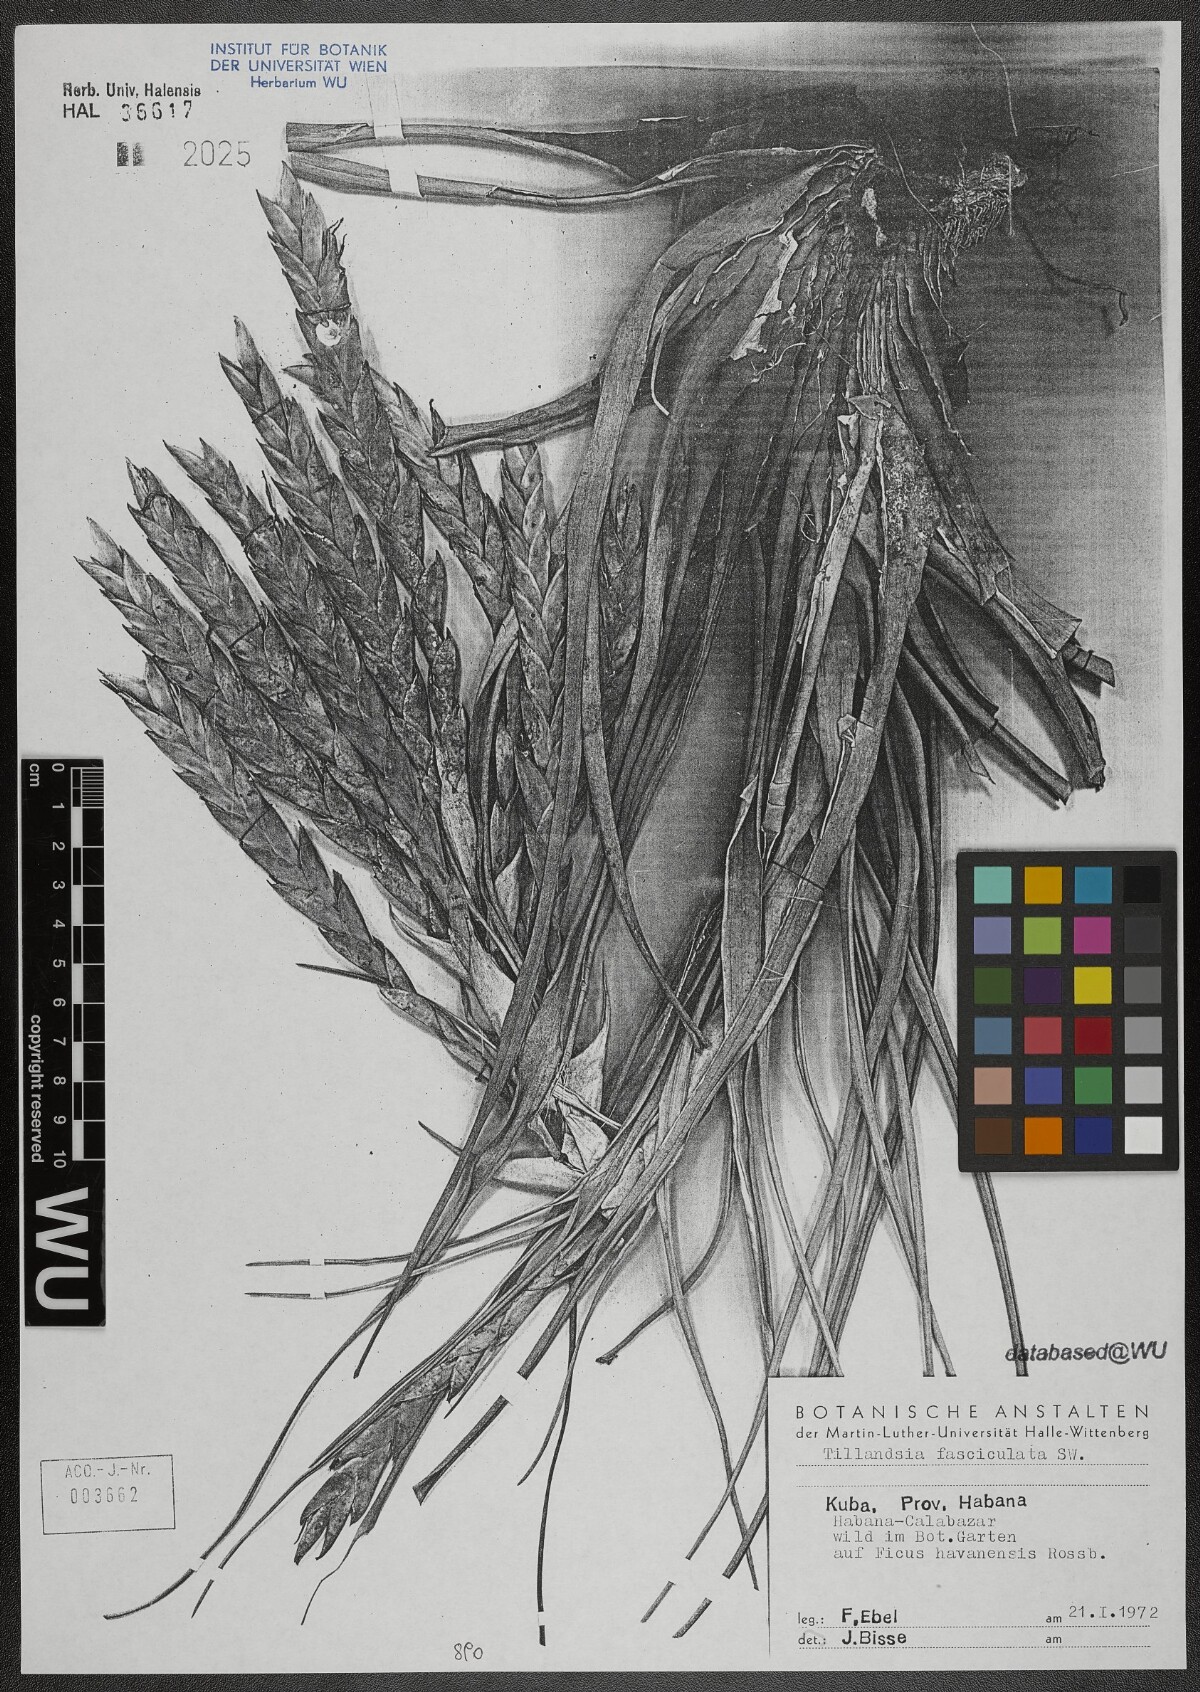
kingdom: Plantae
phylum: Tracheophyta
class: Liliopsida
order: Poales
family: Bromeliaceae
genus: Tillandsia
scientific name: Tillandsia fasciculata
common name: Giant airplant
